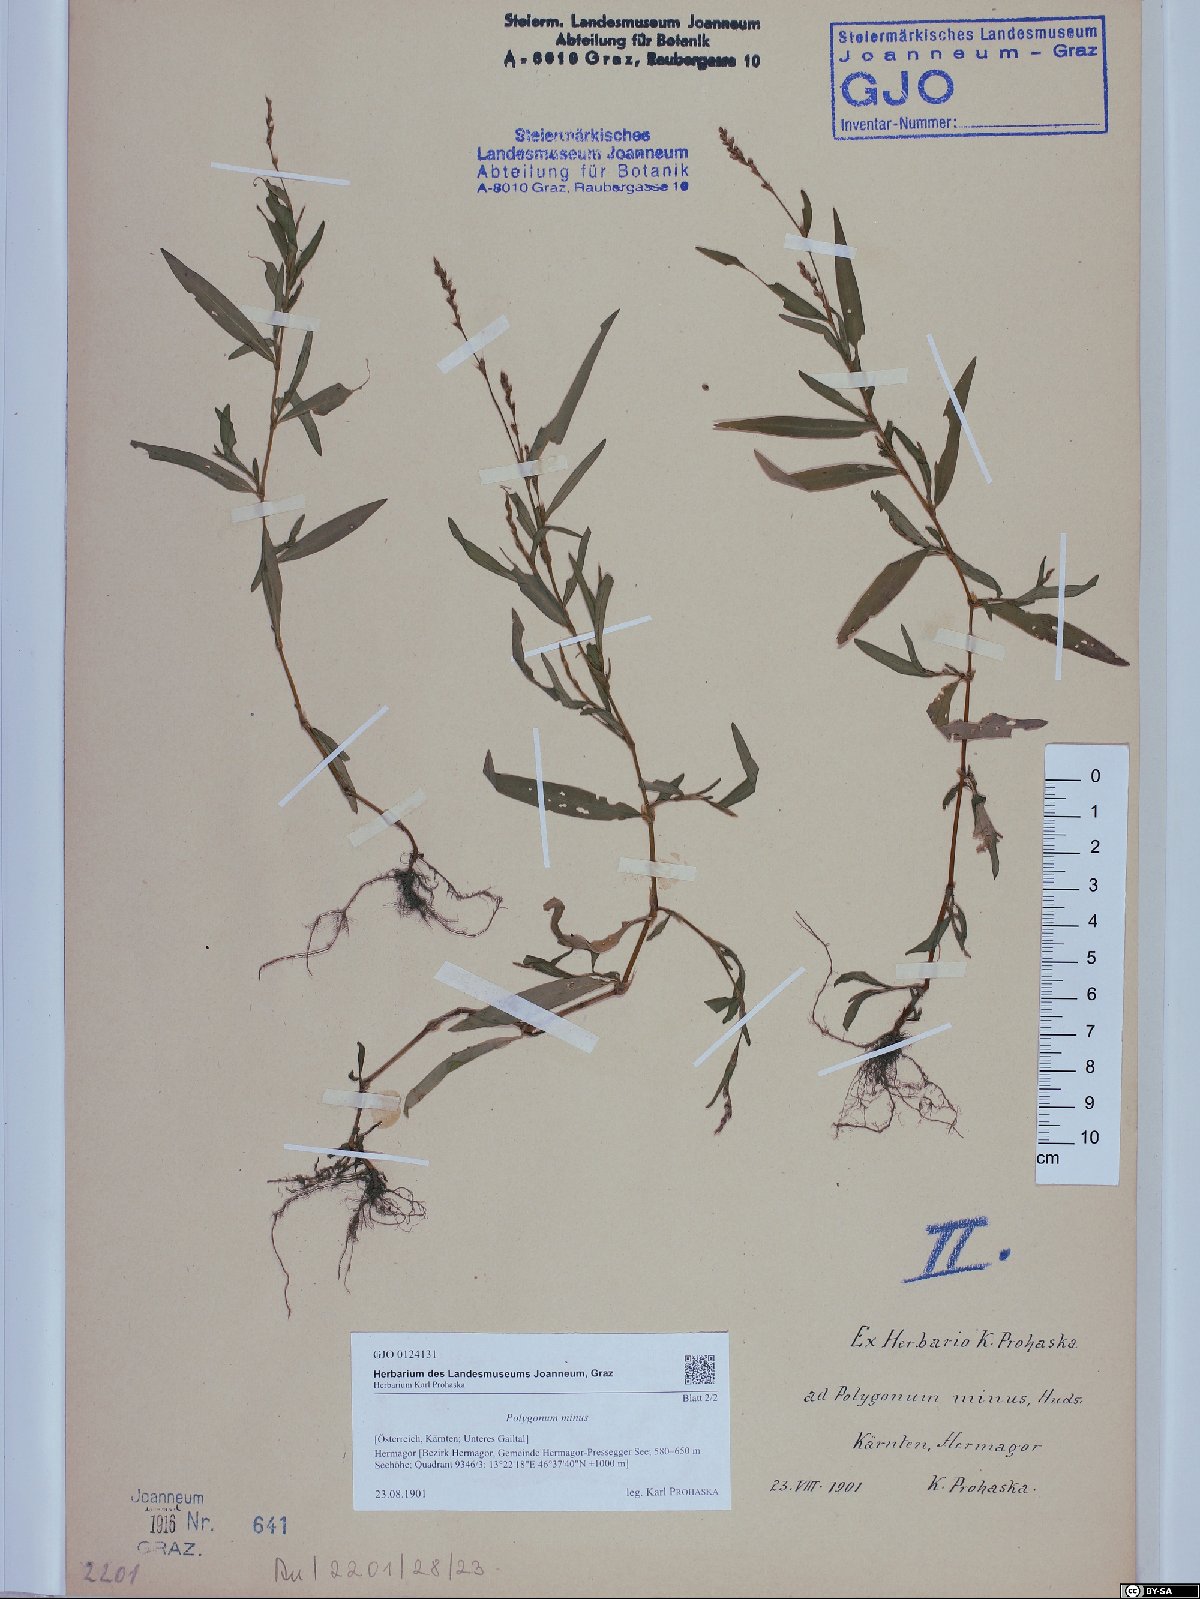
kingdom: Plantae
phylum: Tracheophyta
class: Magnoliopsida
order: Caryophyllales
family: Polygonaceae
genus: Persicaria
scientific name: Persicaria minor
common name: Small water-pepper
